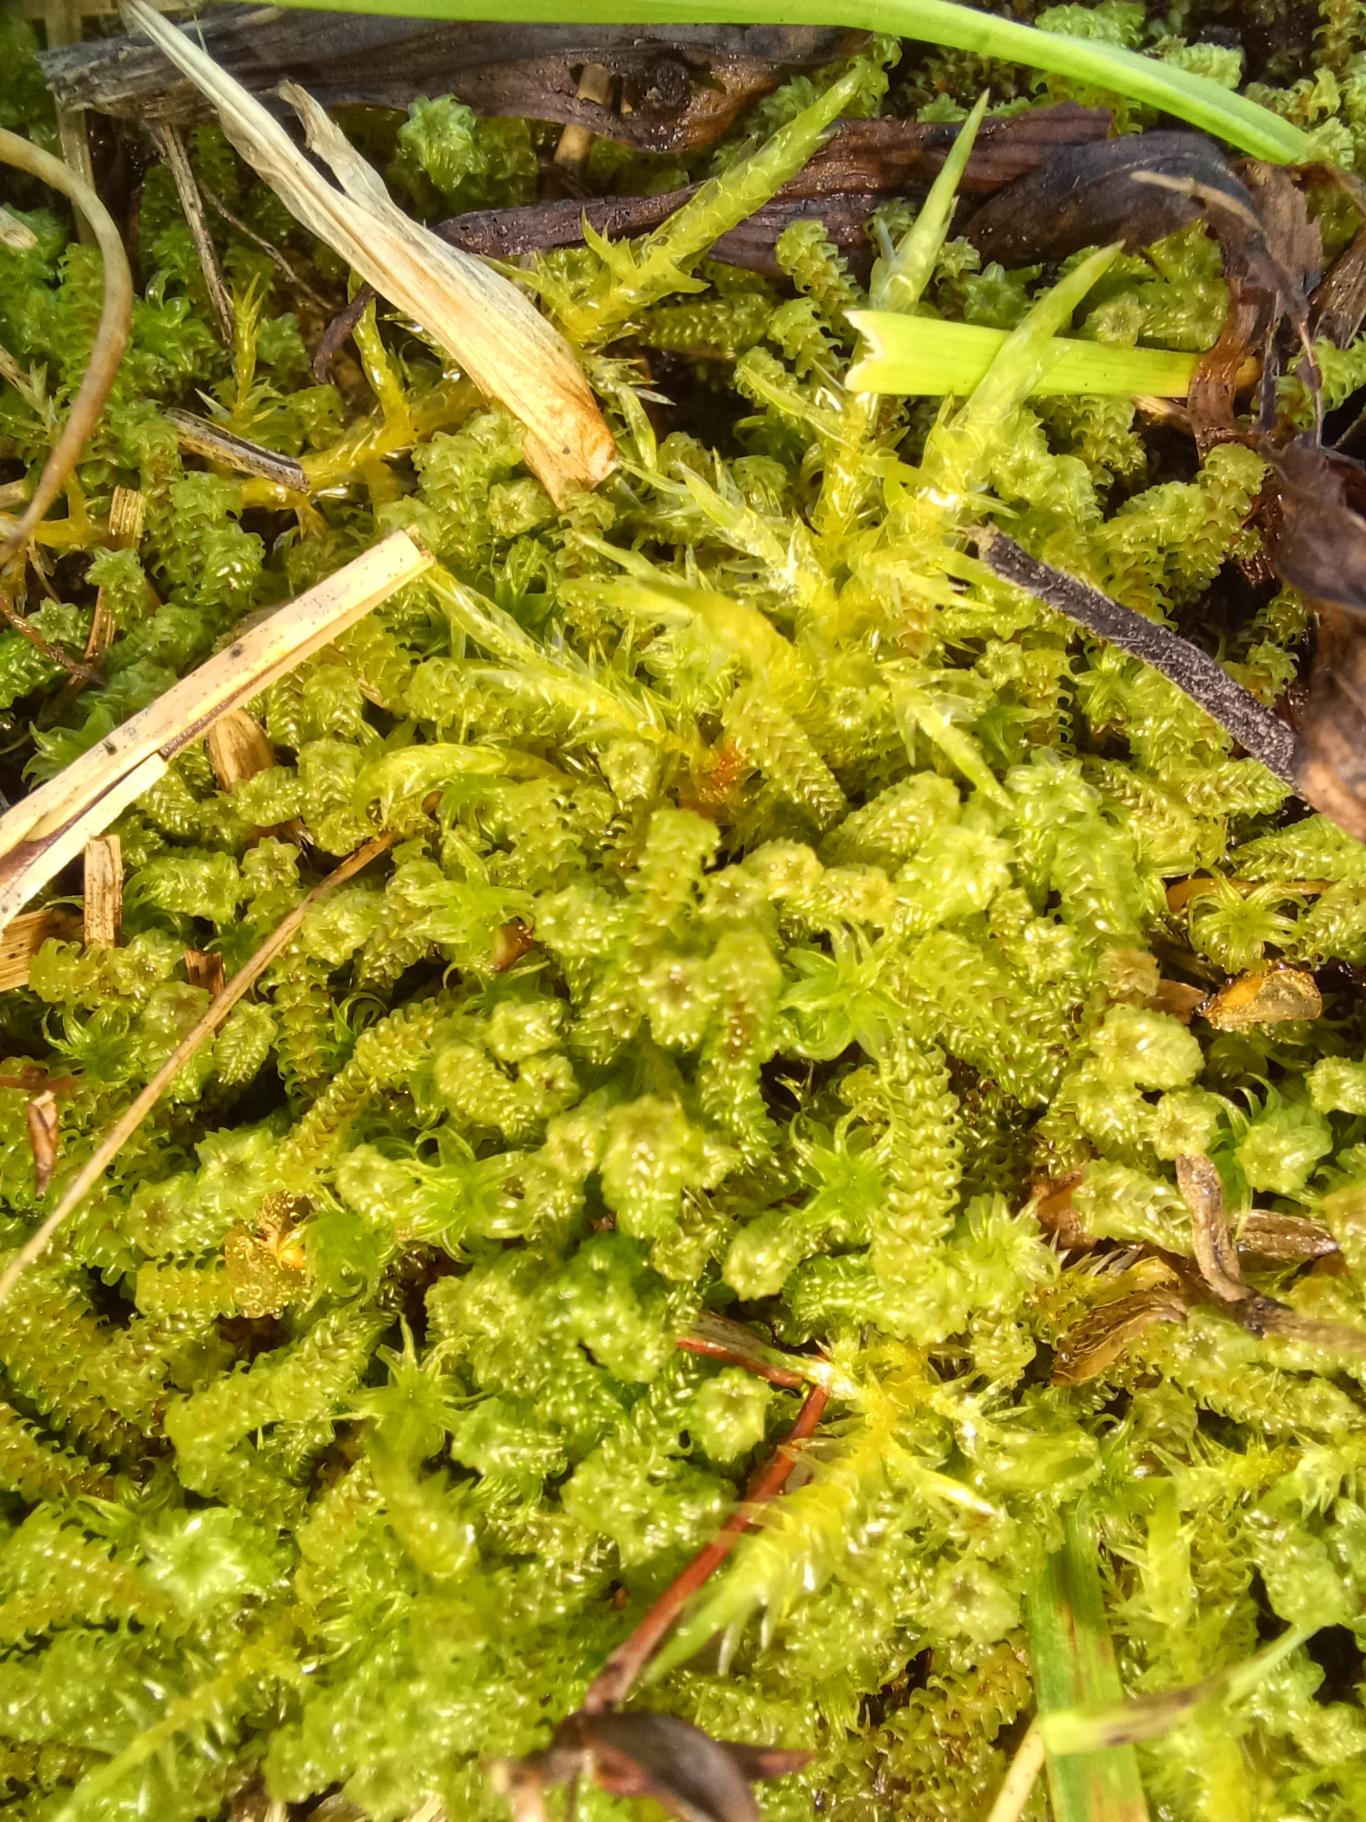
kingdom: Plantae
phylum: Bryophyta
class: Bryopsida
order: Splachnales
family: Meesiaceae
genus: Paludella
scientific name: Paludella squarrosa
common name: Almindelig piberensermos
